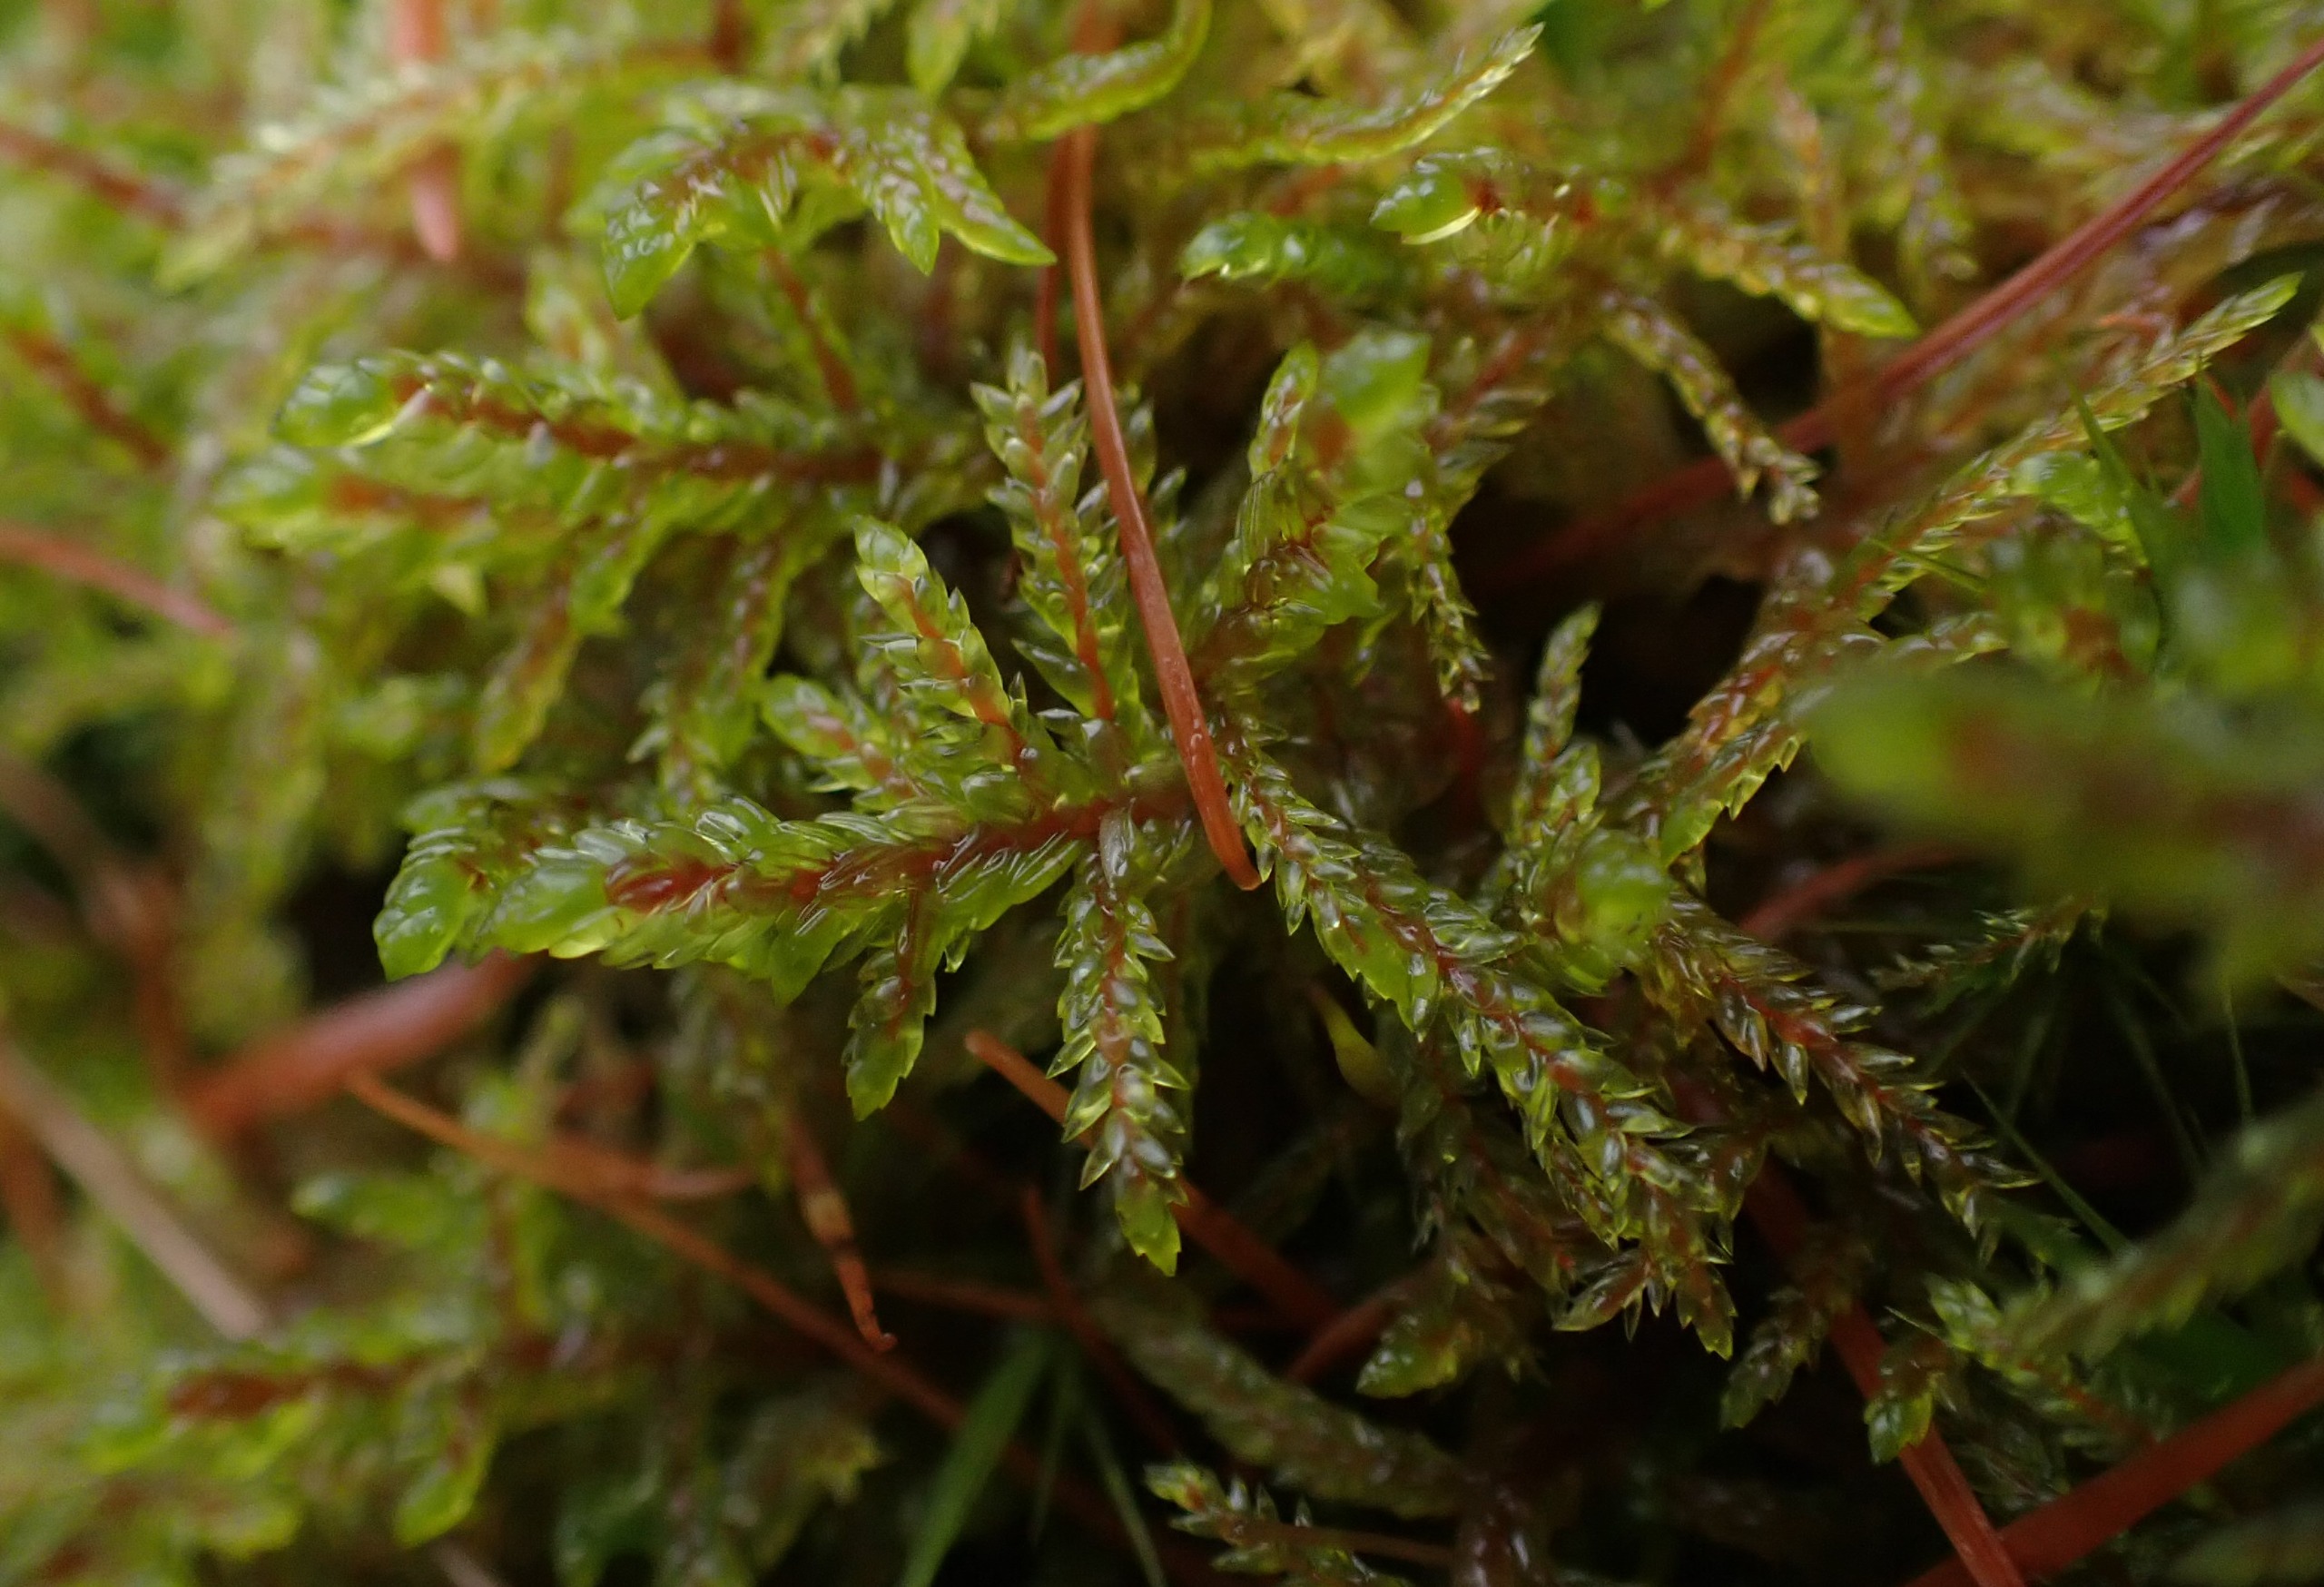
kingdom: Plantae
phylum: Bryophyta
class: Bryopsida
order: Hypnales
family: Hylocomiaceae
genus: Pleurozium
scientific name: Pleurozium schreberi
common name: Trind fyrremos
